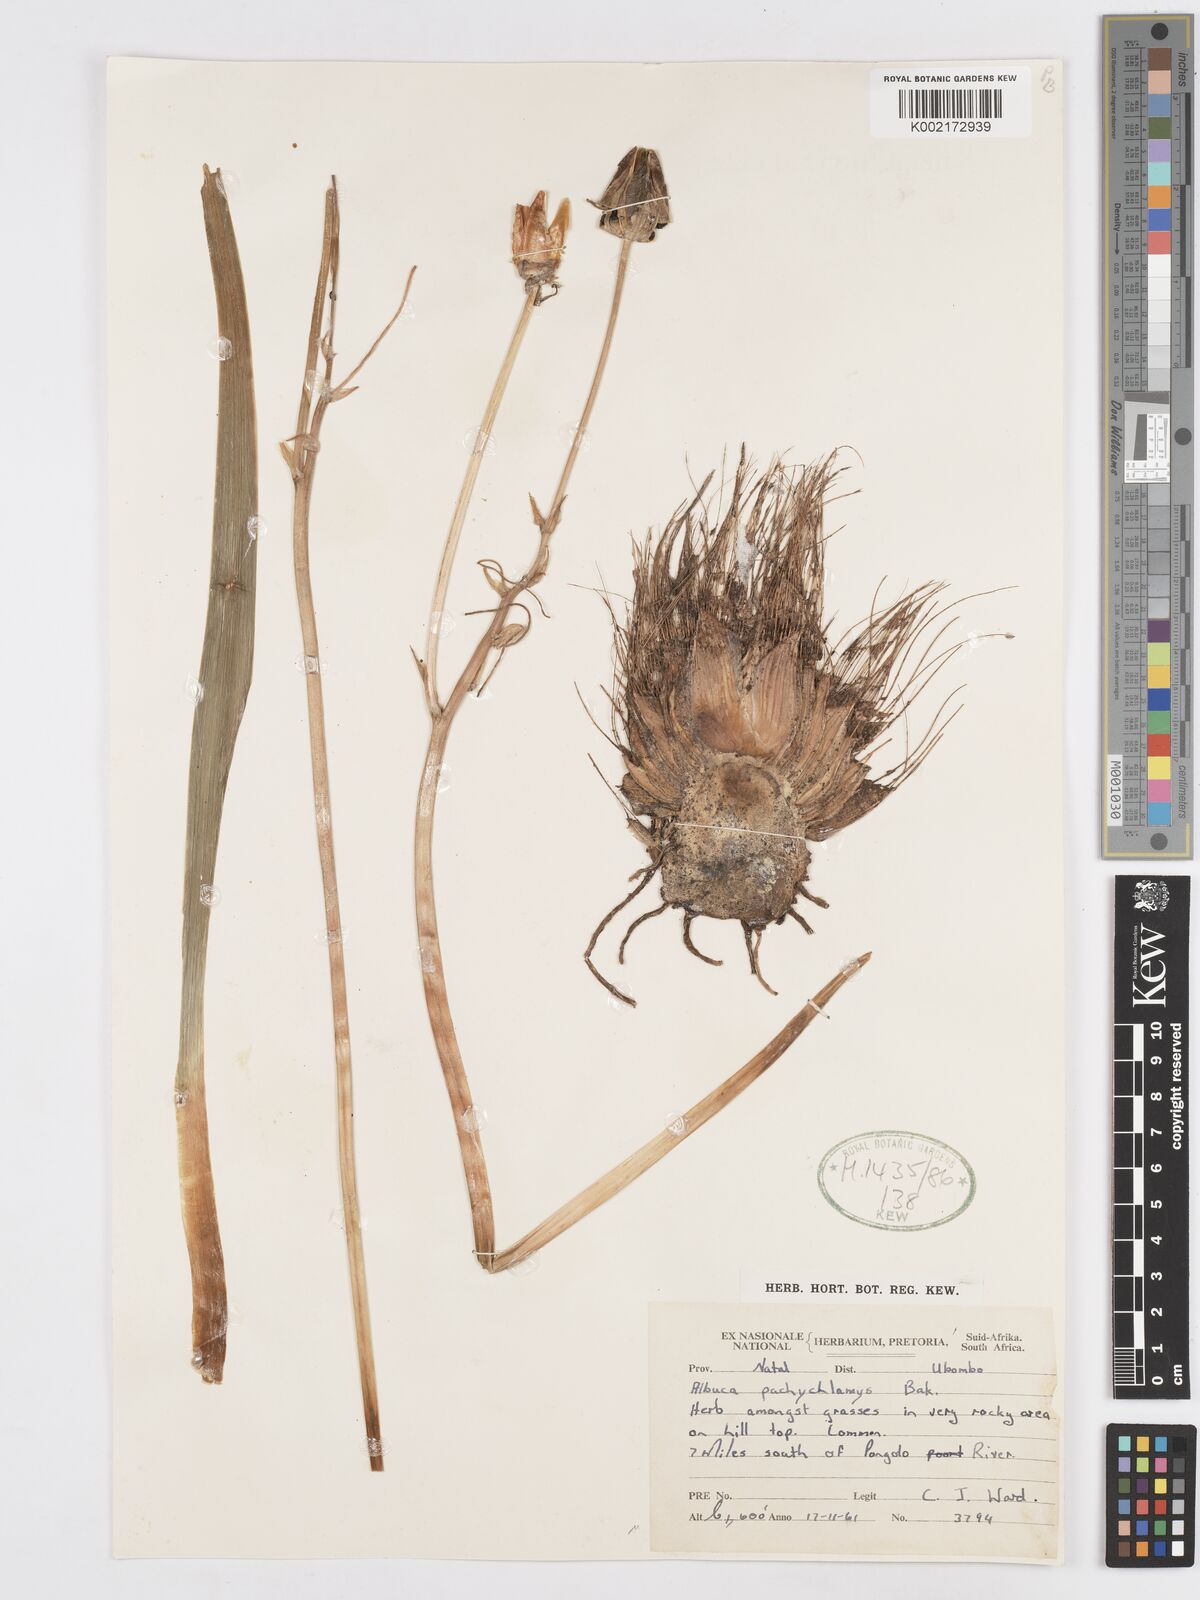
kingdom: Plantae
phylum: Tracheophyta
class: Liliopsida
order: Asparagales
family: Asparagaceae
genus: Albuca
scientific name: Albuca setosa
